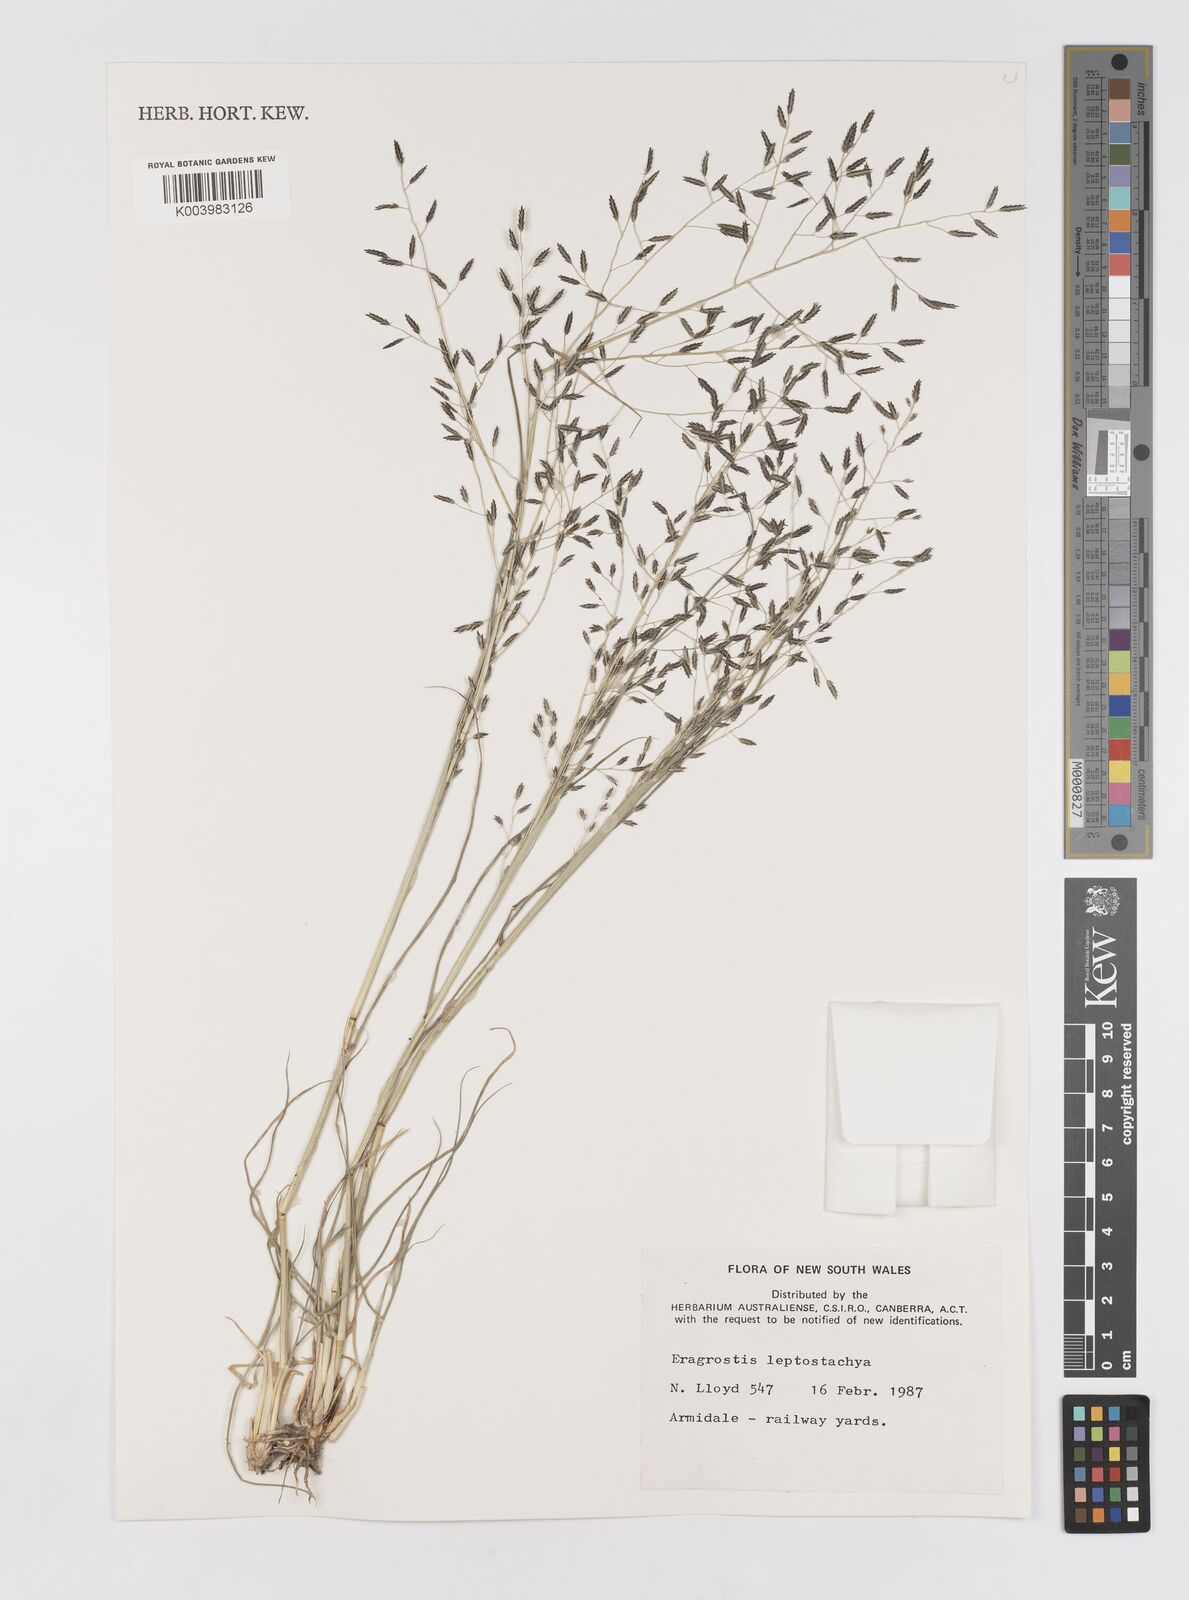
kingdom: Plantae
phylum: Tracheophyta
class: Liliopsida
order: Poales
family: Poaceae
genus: Eragrostis
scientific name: Eragrostis leptostachya
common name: Australian lovegrass
